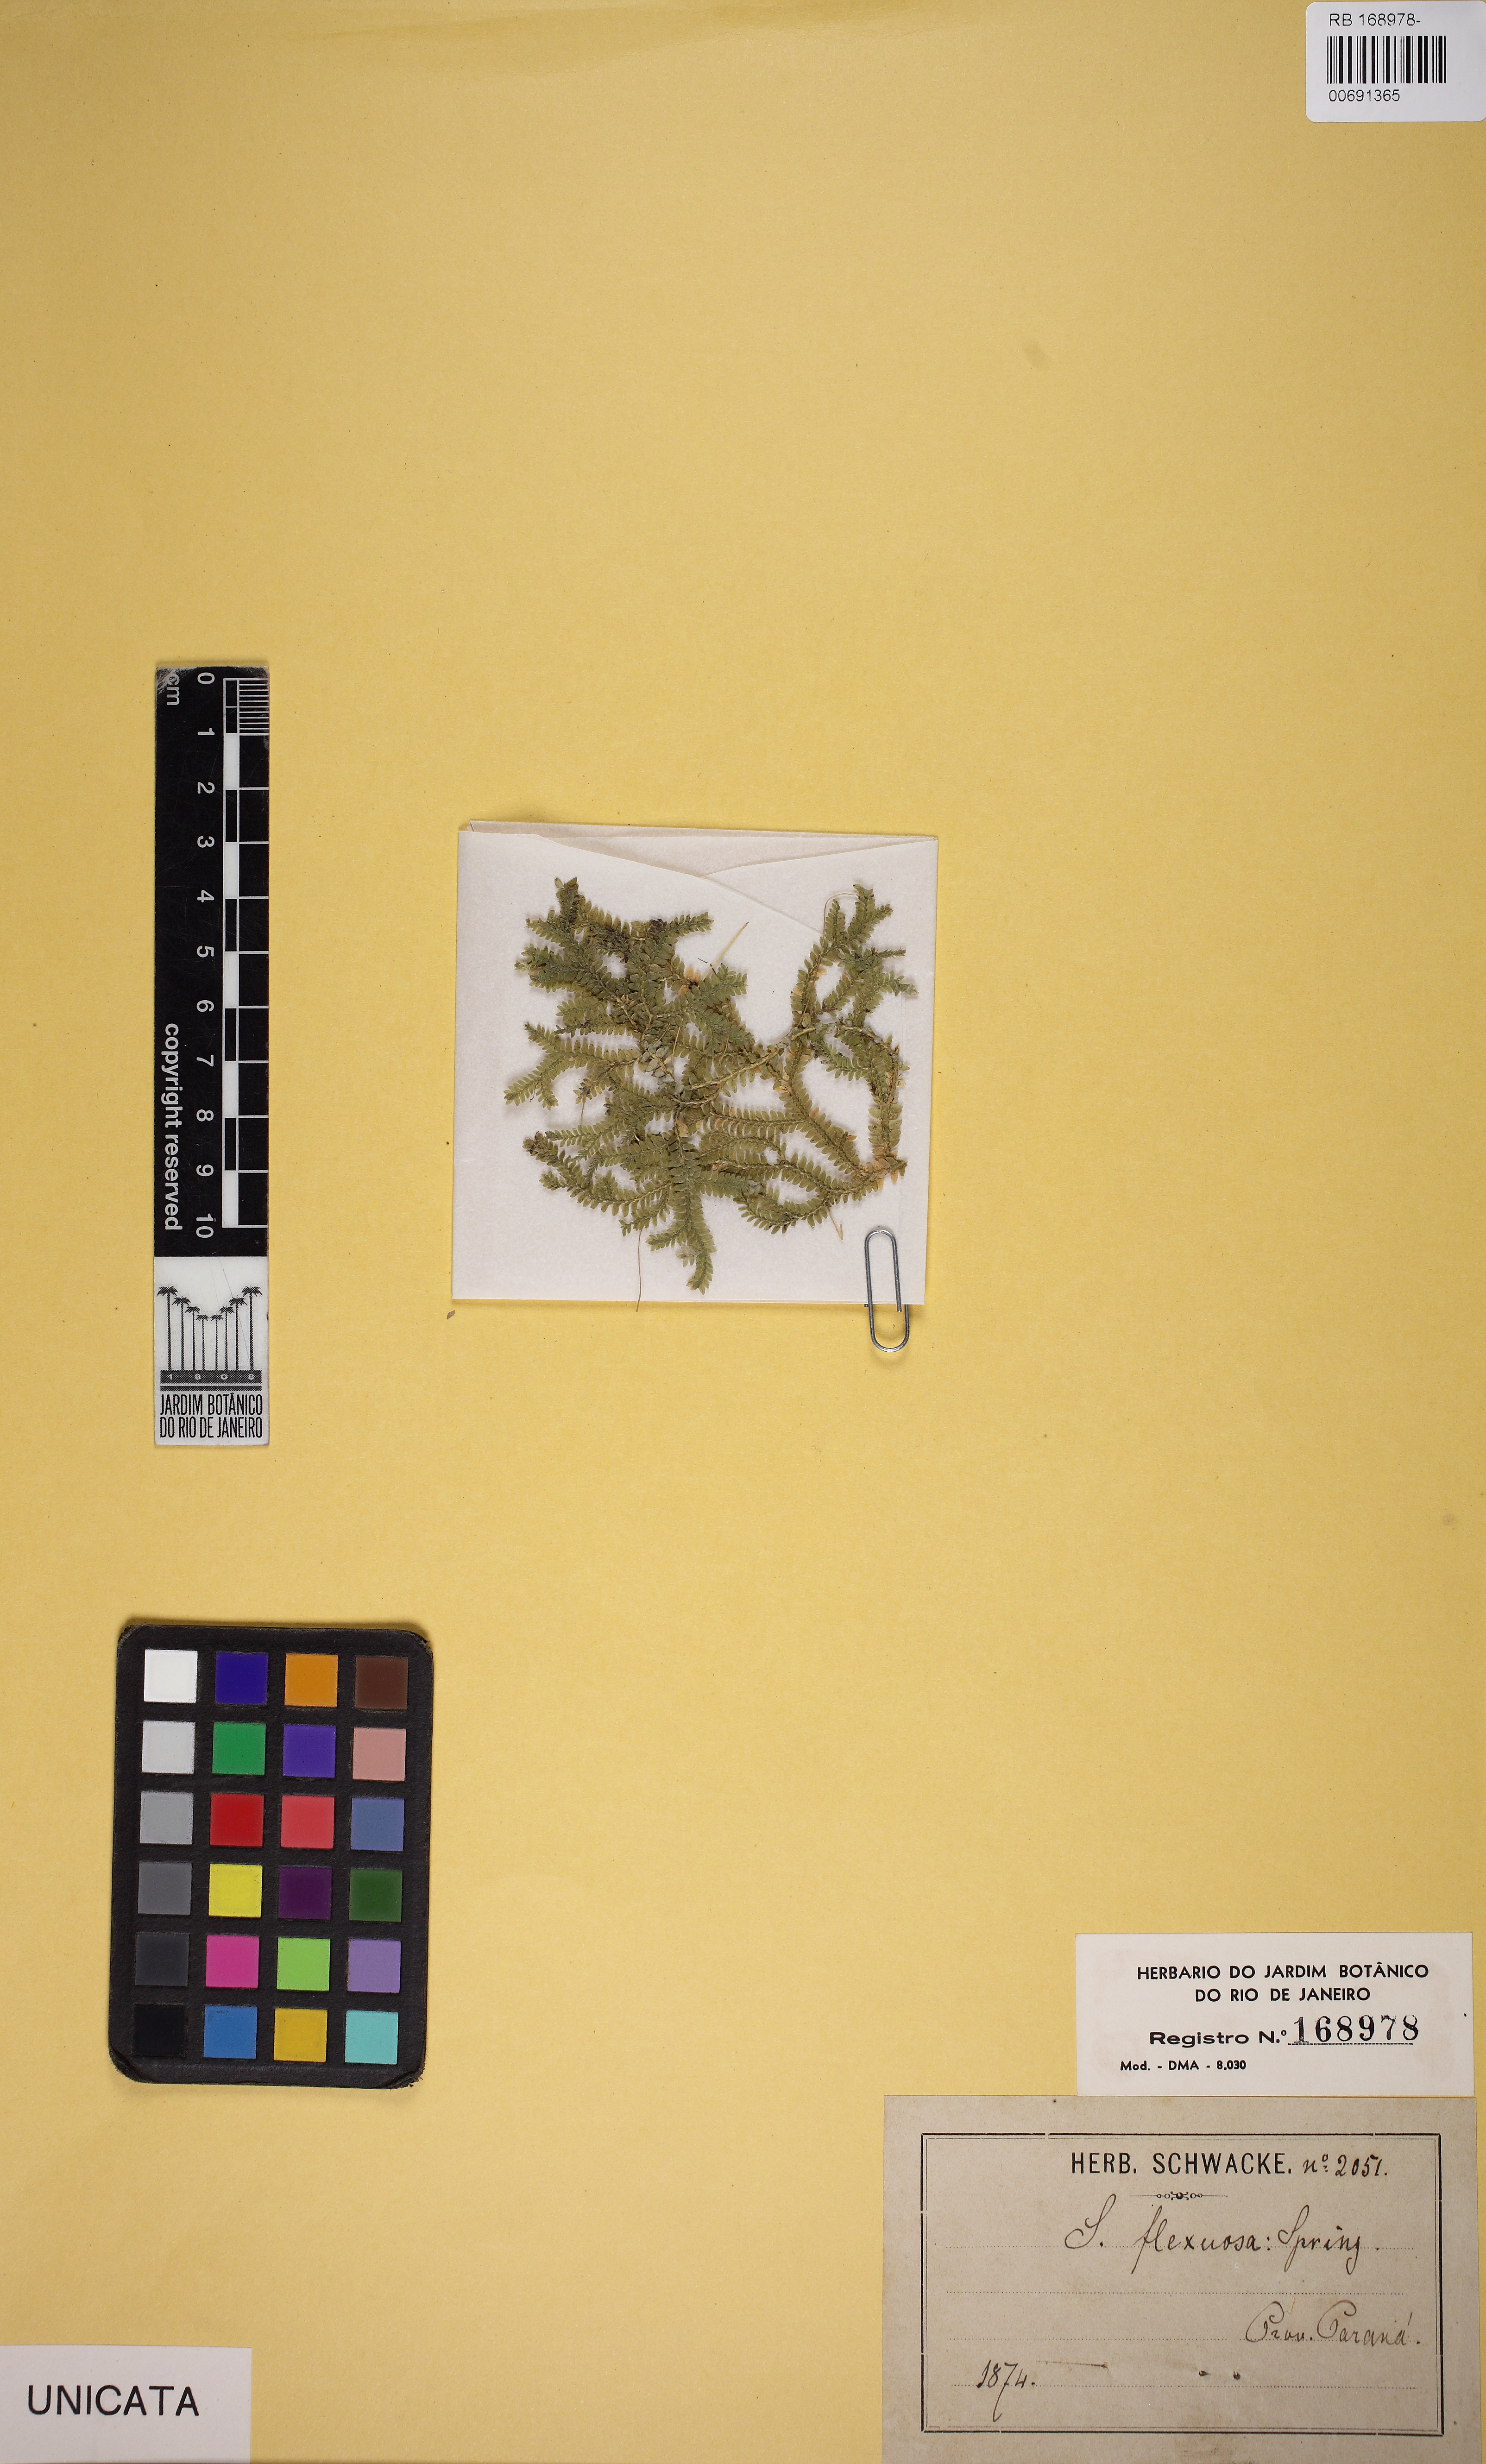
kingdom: Plantae
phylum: Tracheophyta
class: Lycopodiopsida
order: Selaginellales
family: Selaginellaceae
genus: Selaginella
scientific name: Selaginella flexuosa
